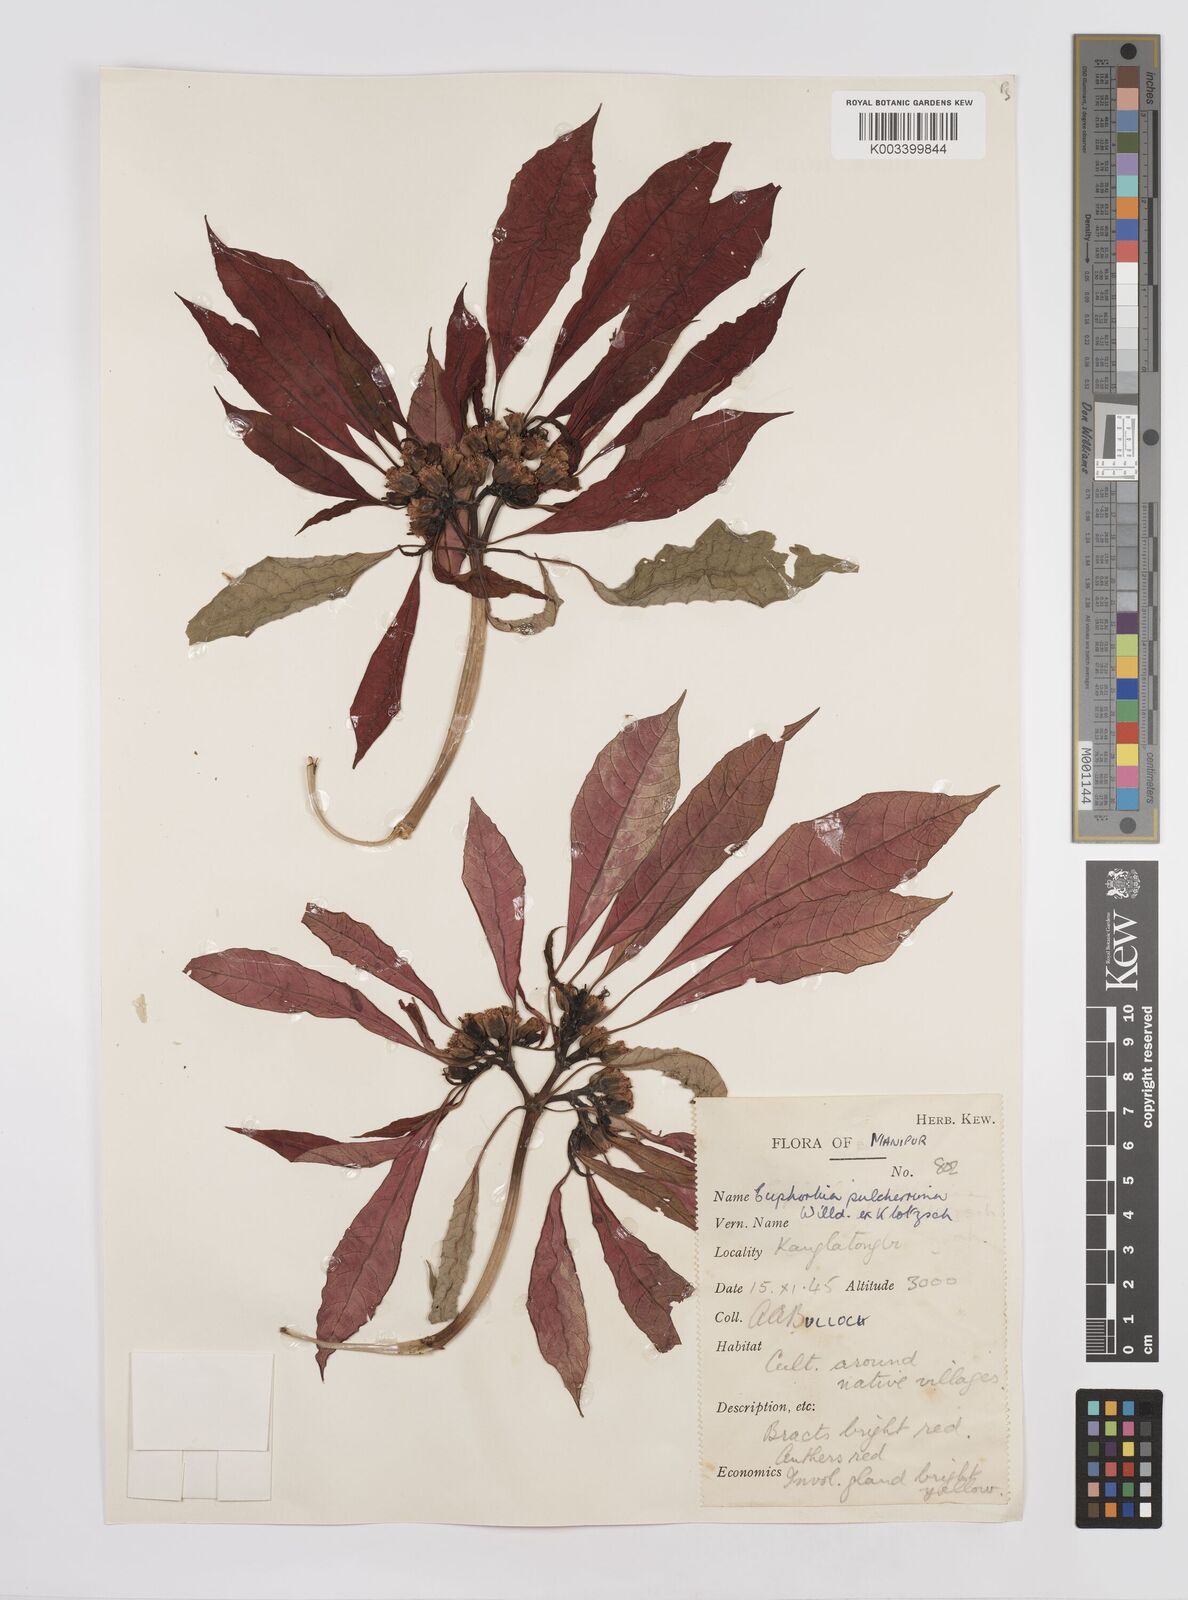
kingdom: Plantae
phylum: Tracheophyta
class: Magnoliopsida
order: Malpighiales
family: Euphorbiaceae
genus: Euphorbia
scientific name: Euphorbia pulcherrima
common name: Christmas-flower
